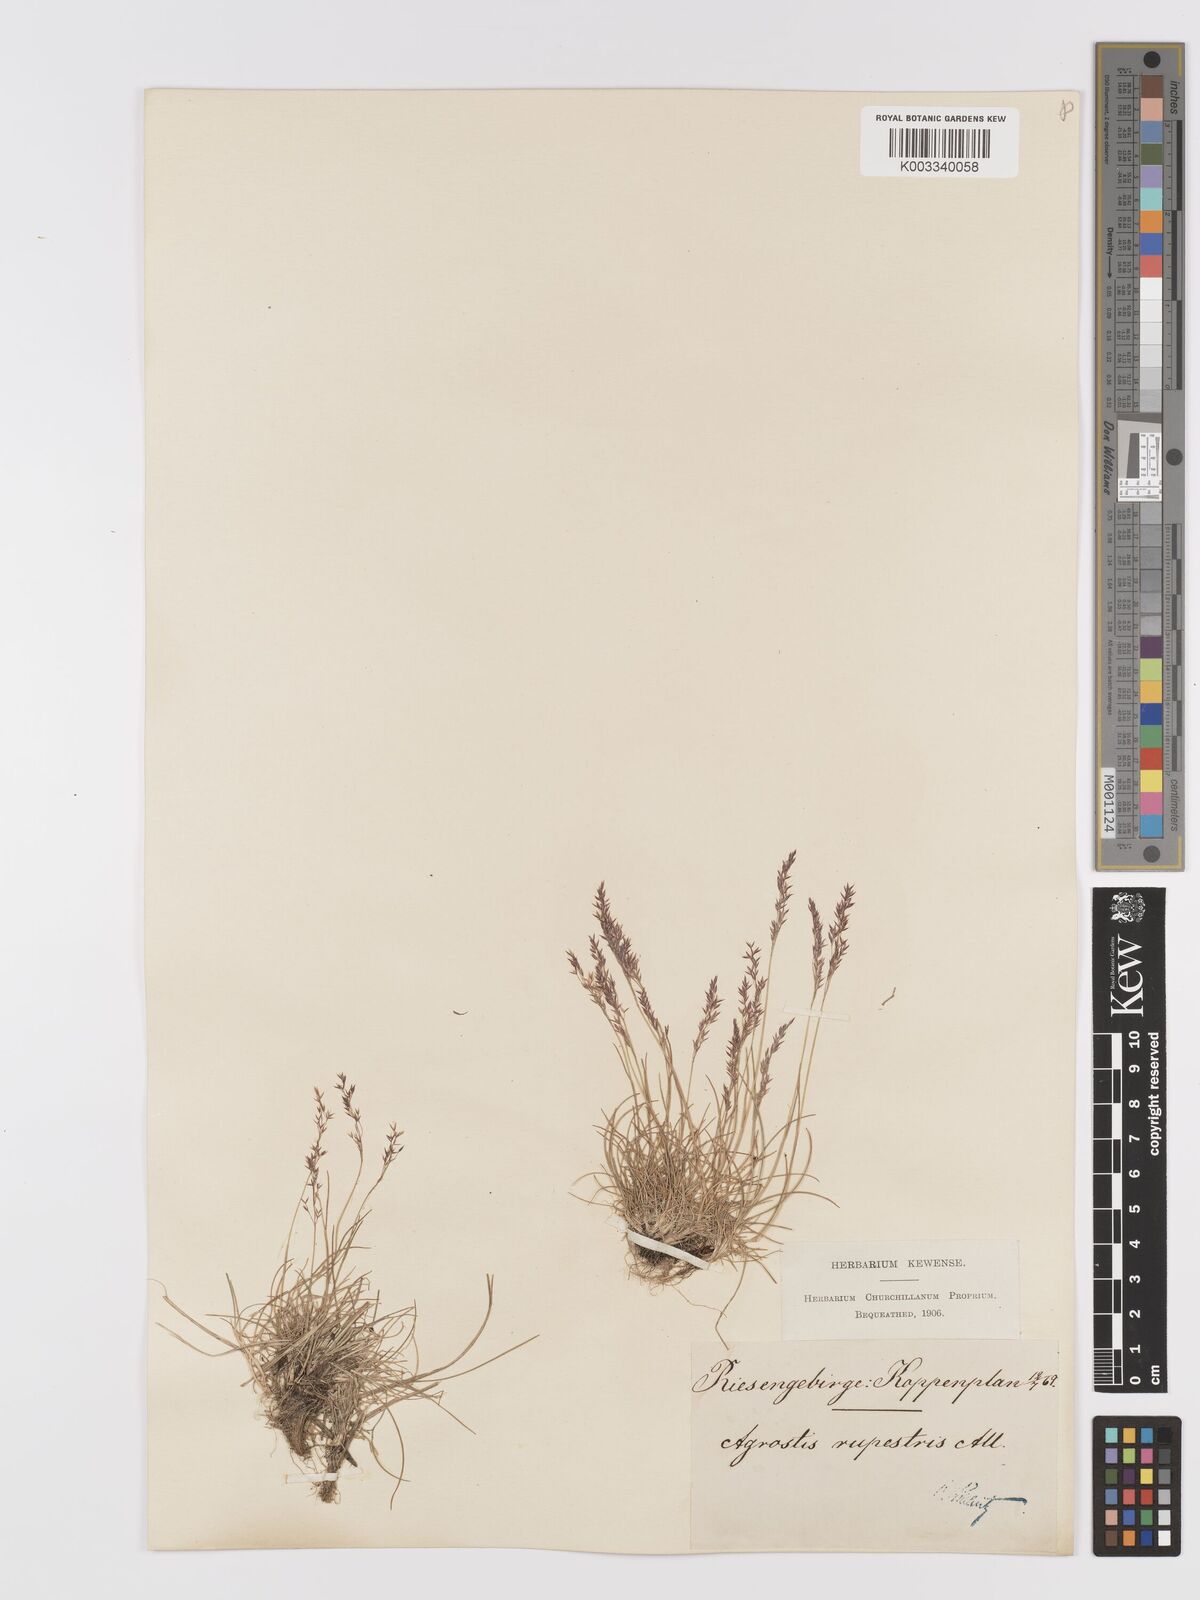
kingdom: Plantae
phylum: Tracheophyta
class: Liliopsida
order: Poales
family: Poaceae
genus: Agrostis
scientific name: Agrostis rupestris
